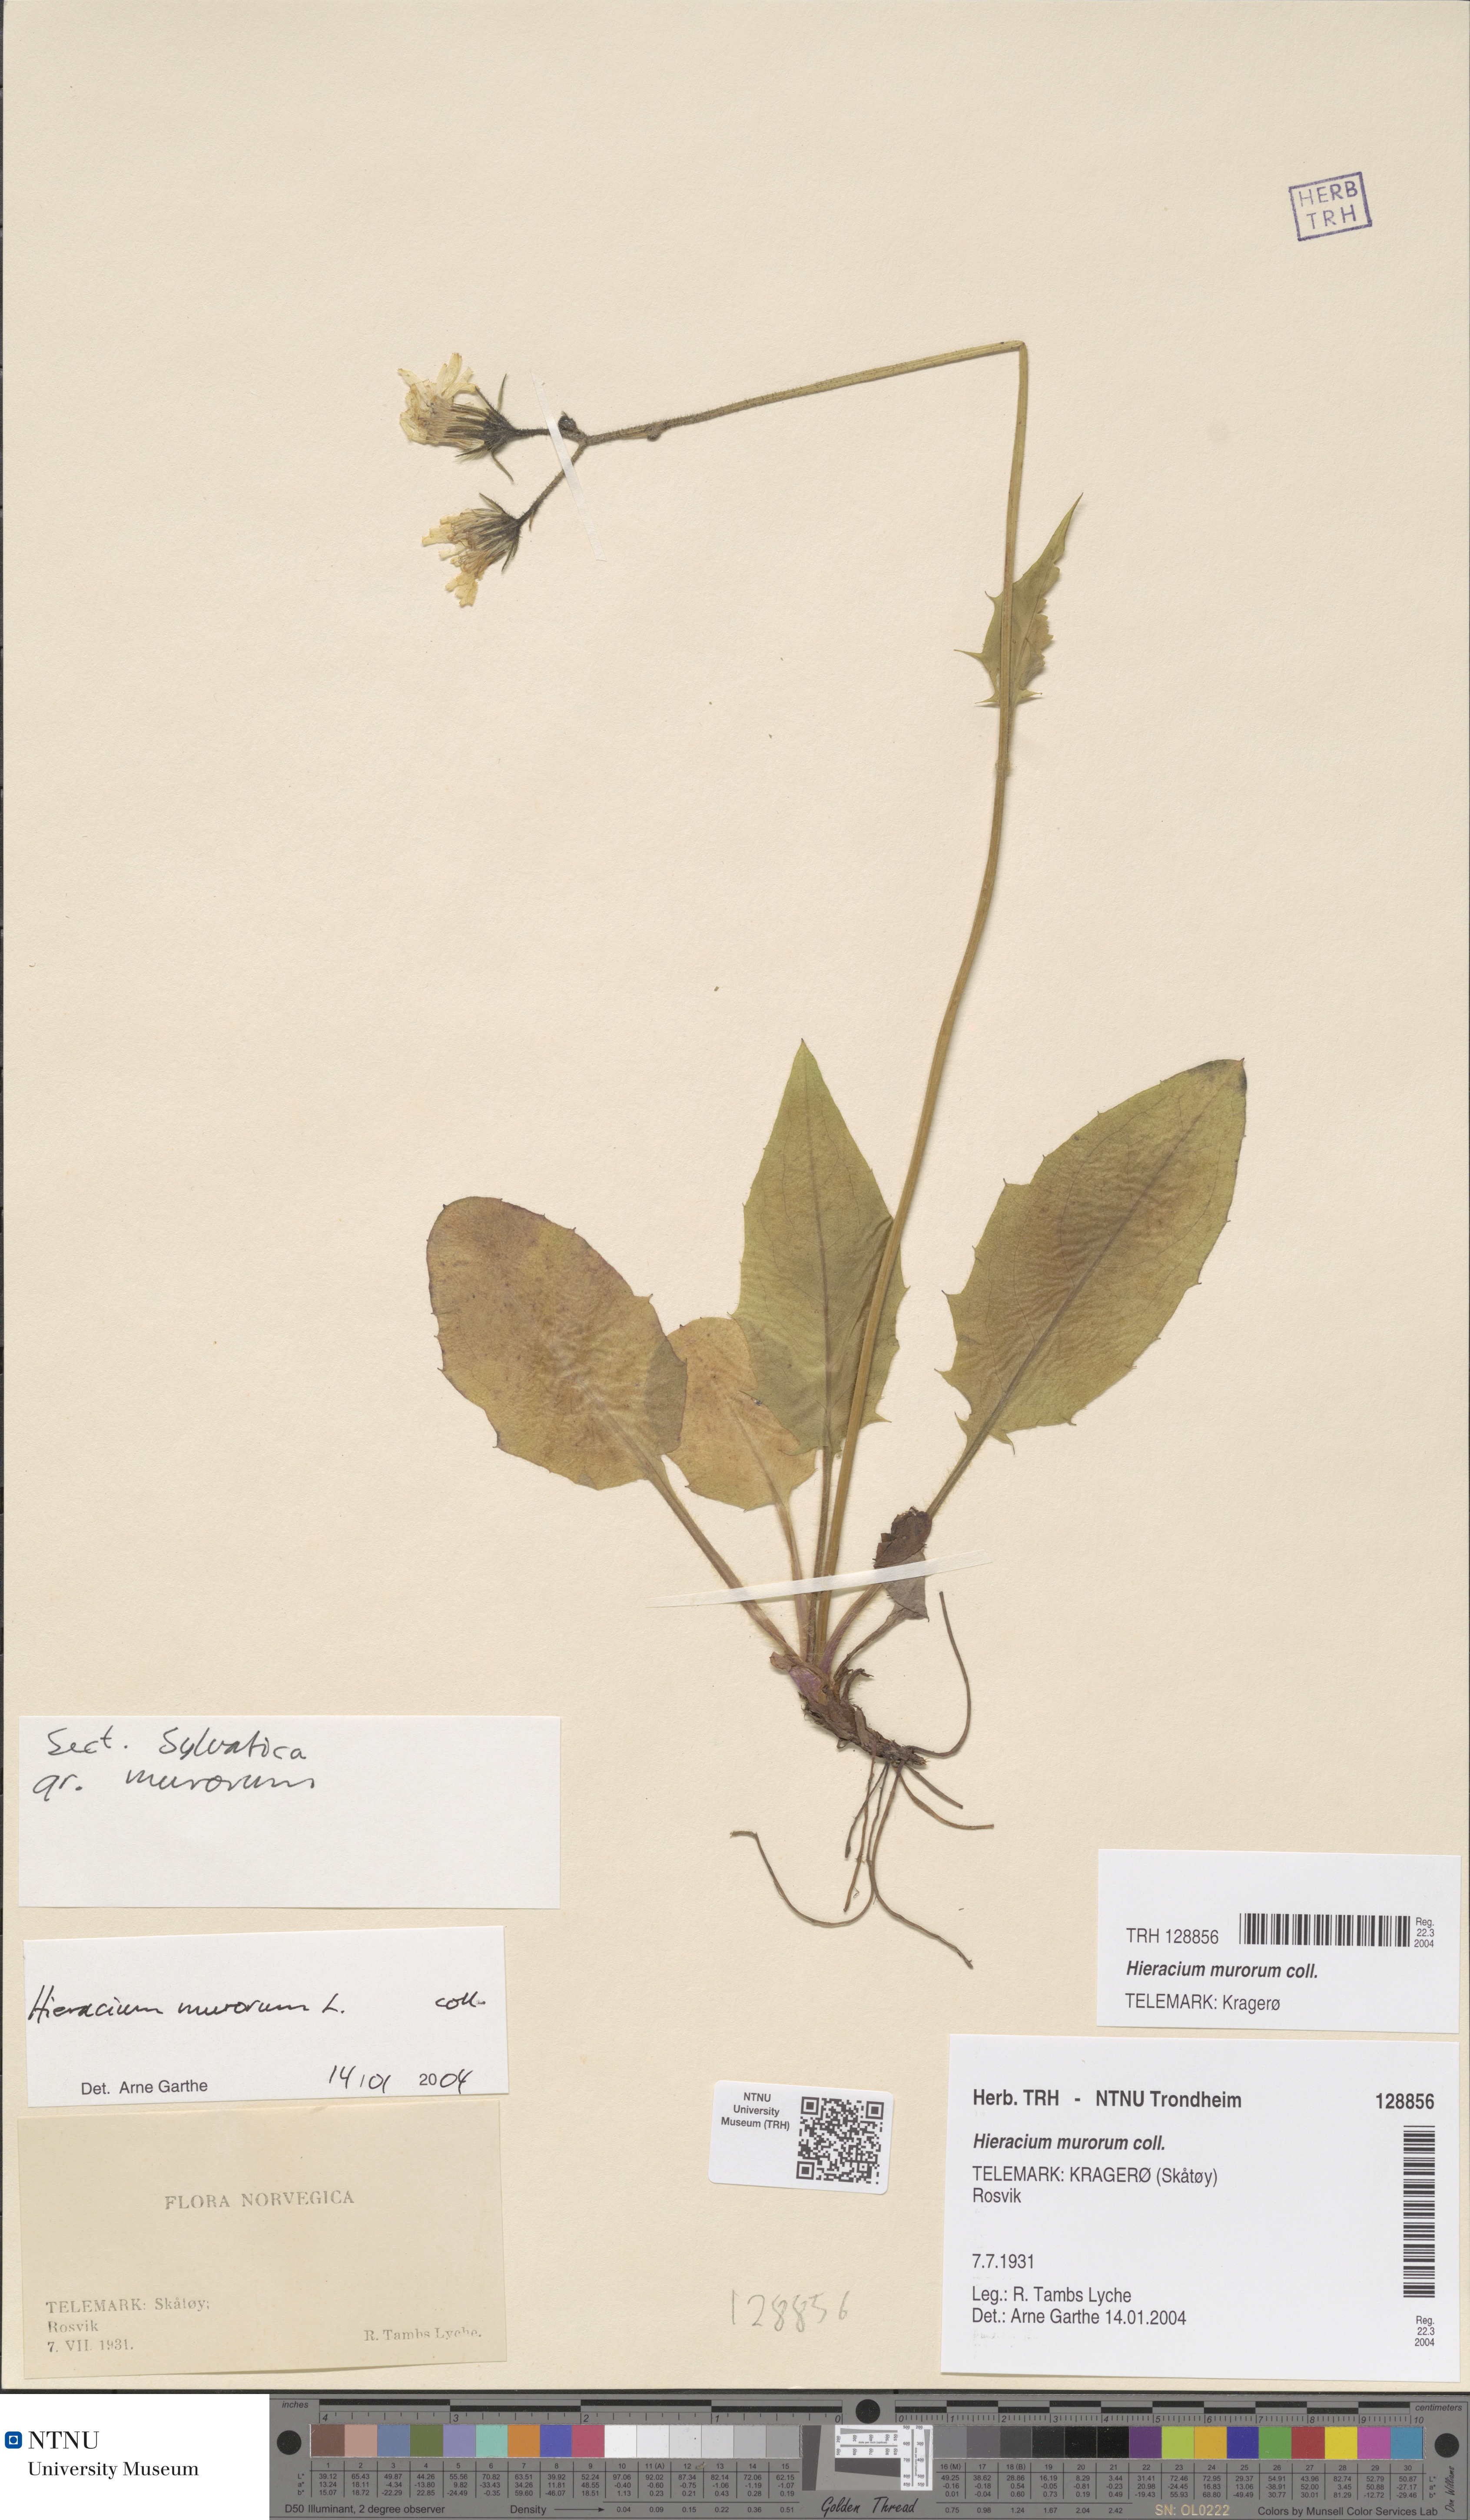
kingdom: Plantae
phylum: Tracheophyta
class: Magnoliopsida
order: Asterales
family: Asteraceae
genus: Hieracium
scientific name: Hieracium murorum
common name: Wall hawkweed
